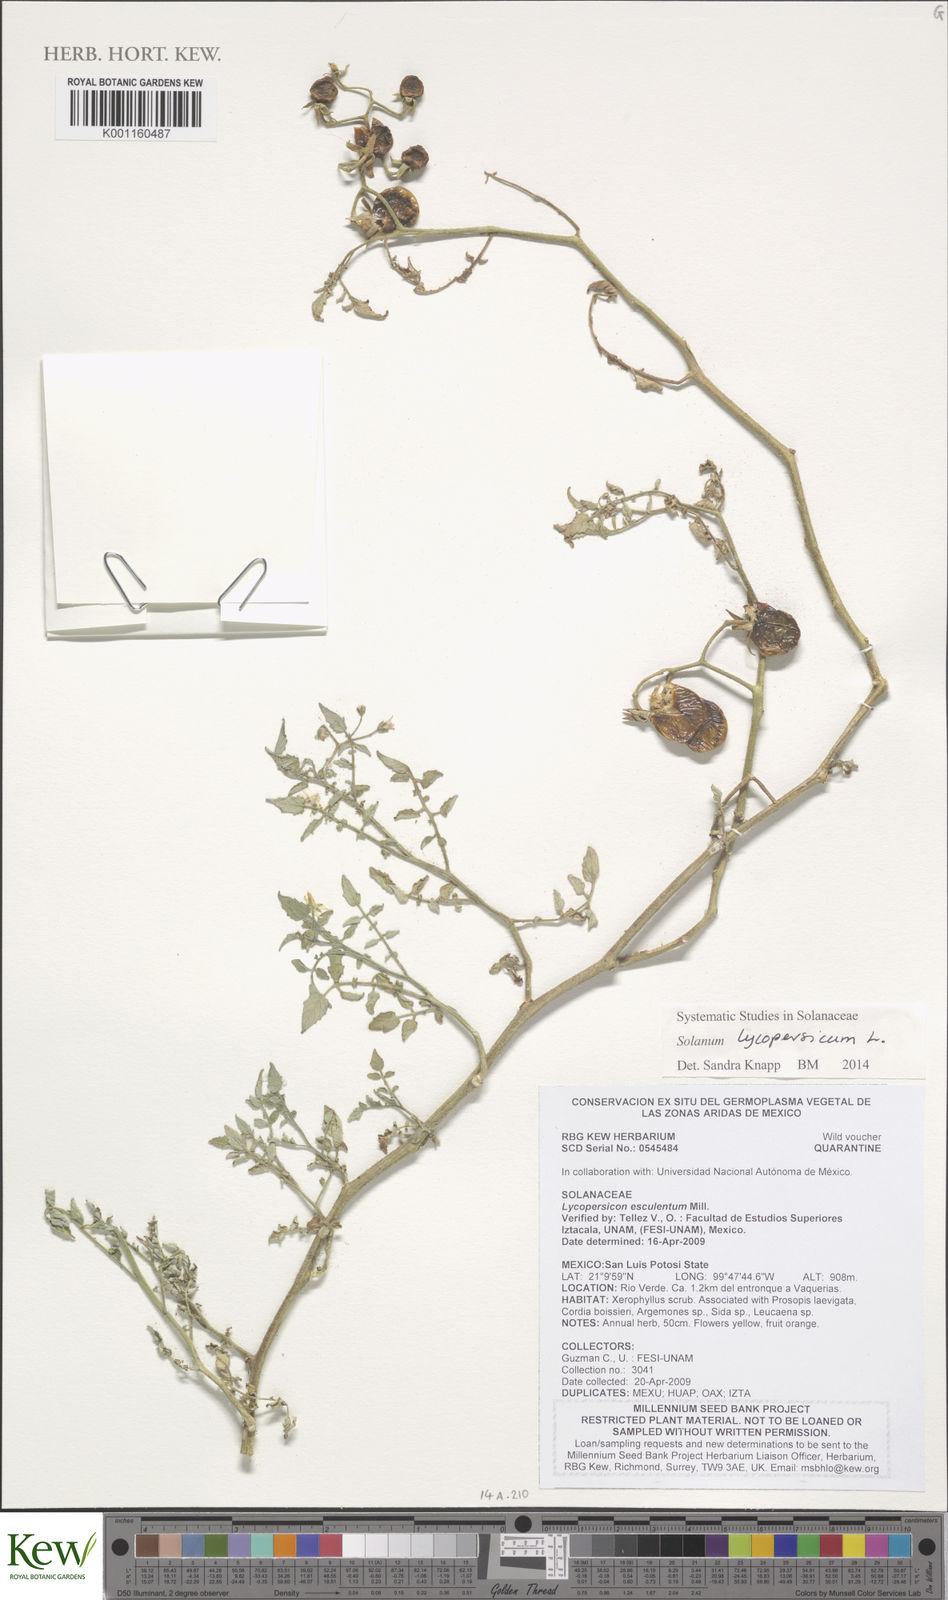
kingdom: Plantae
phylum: Tracheophyta
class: Magnoliopsida
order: Solanales
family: Solanaceae
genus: Solanum
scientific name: Solanum lycopersicum
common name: Garden tomato
